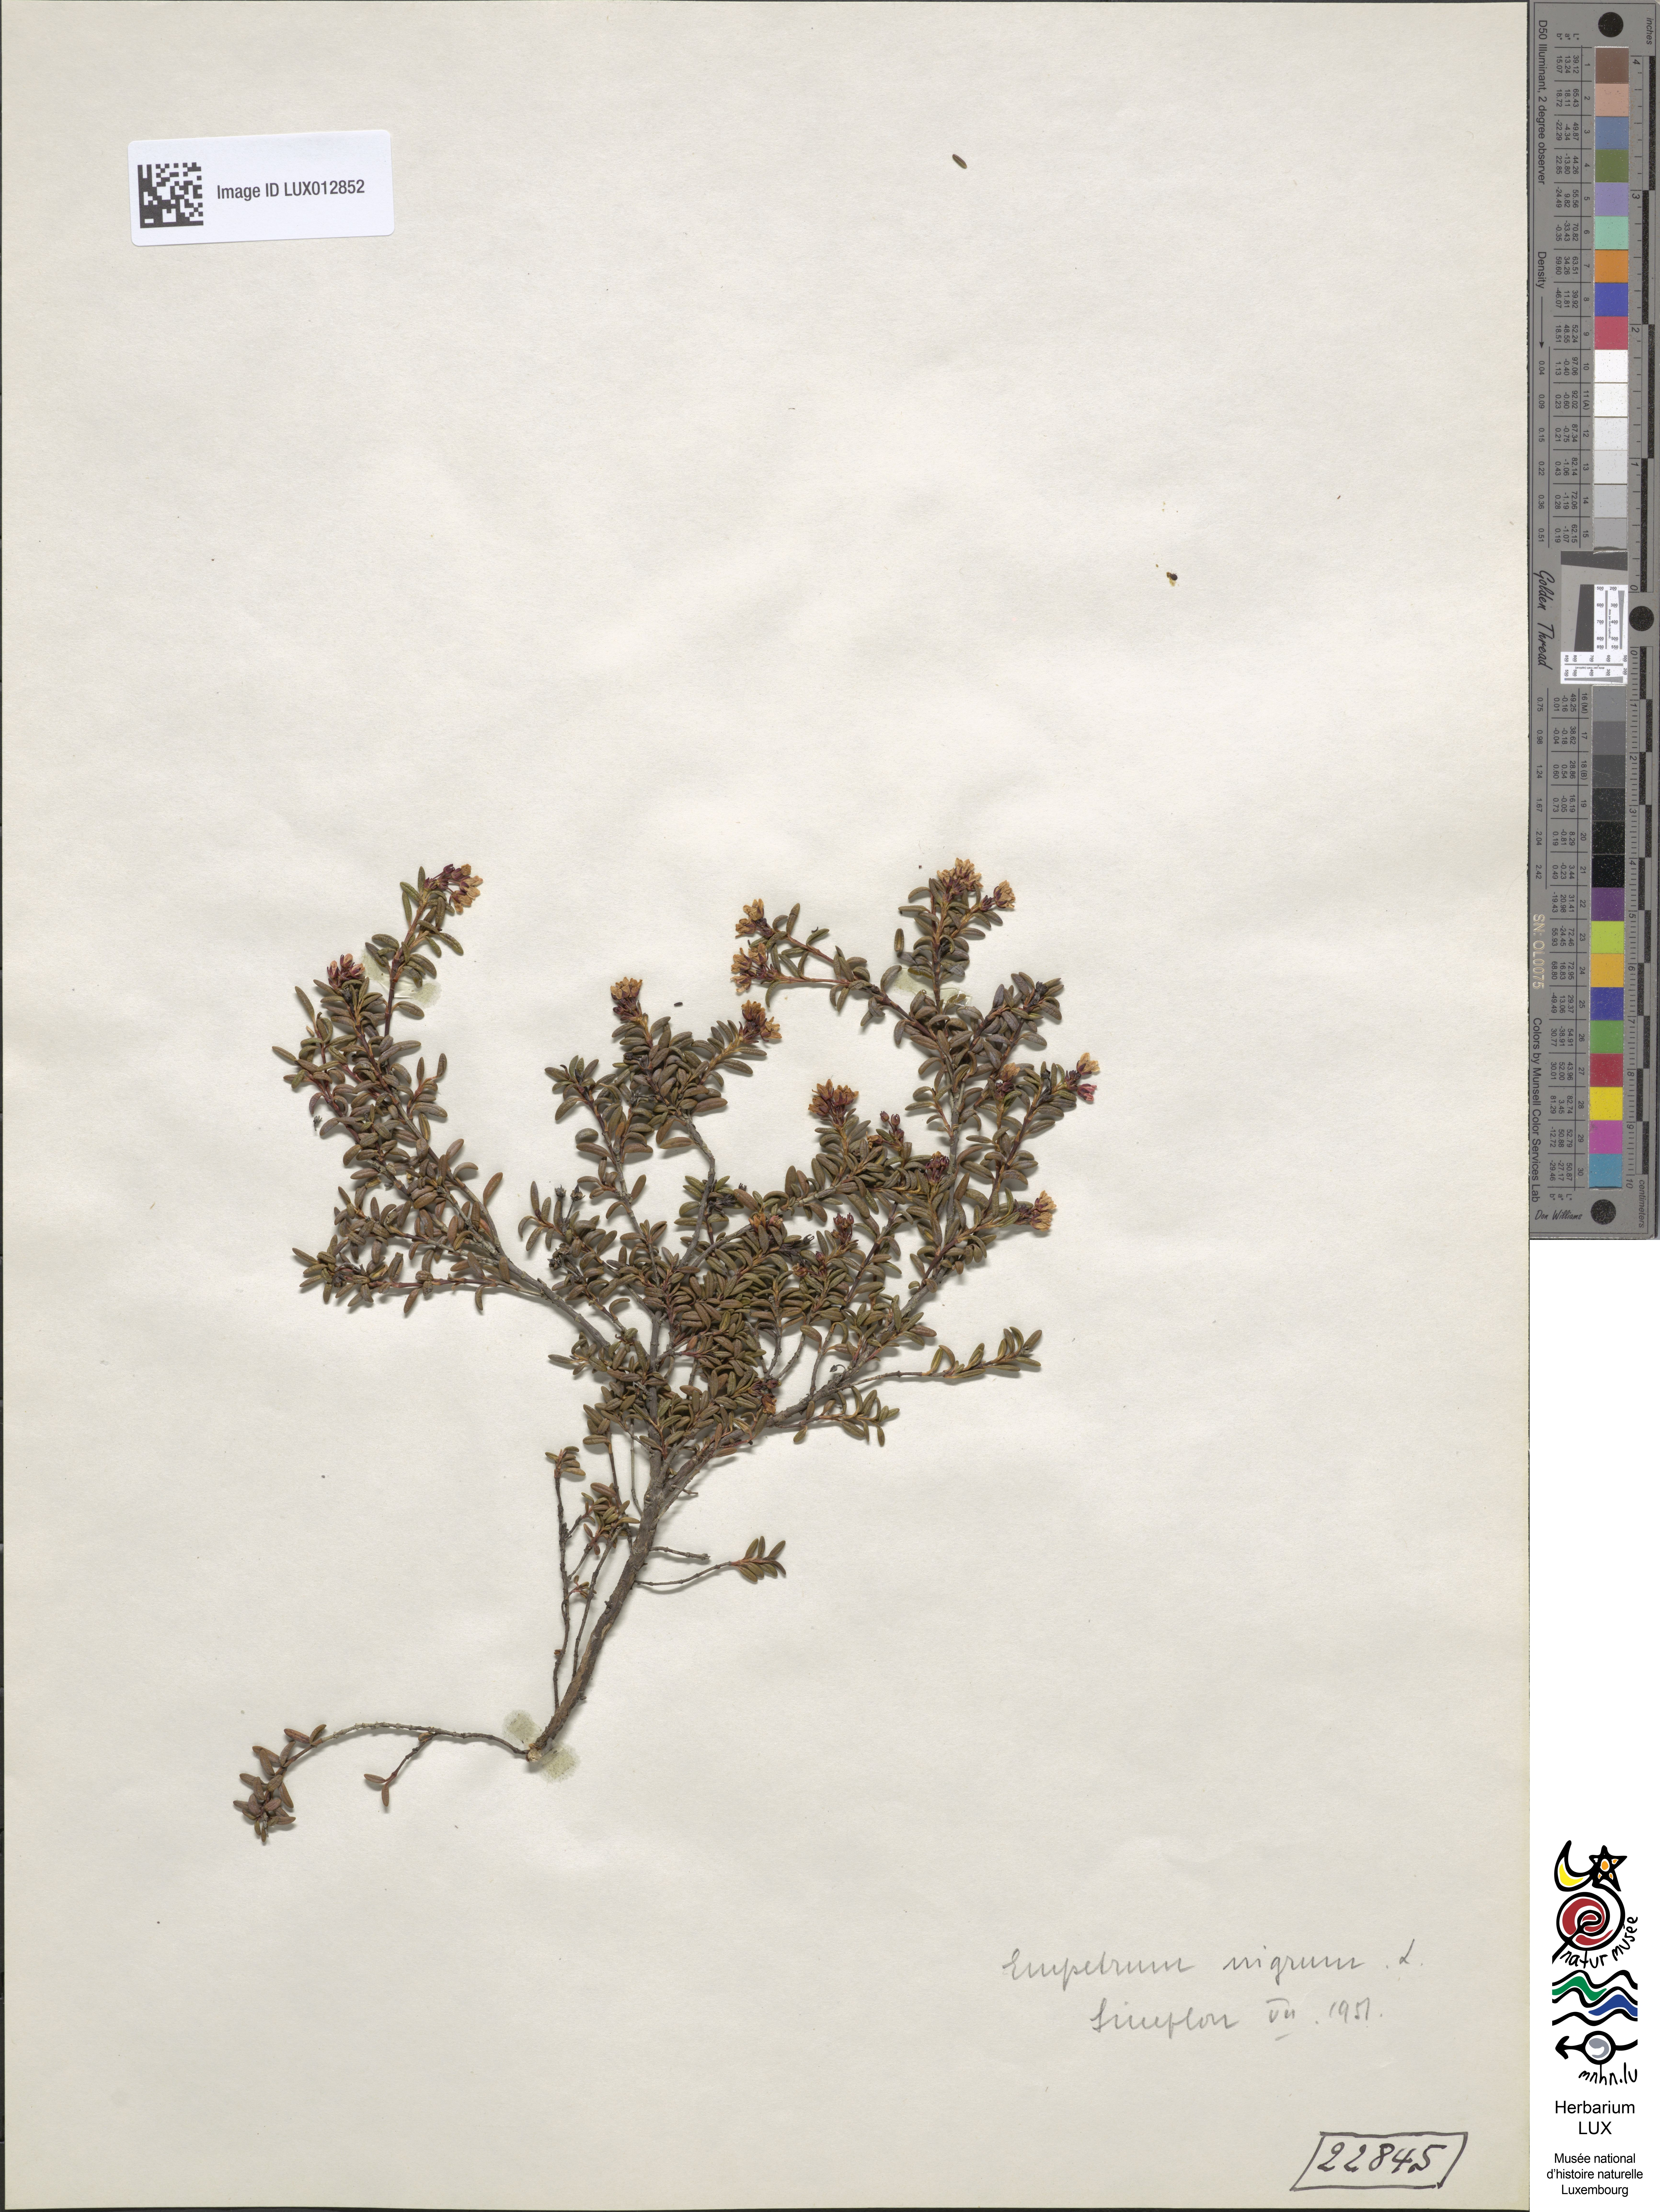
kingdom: Plantae
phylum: Tracheophyta
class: Magnoliopsida
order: Ericales
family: Ericaceae
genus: Empetrum
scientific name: Empetrum nigrum
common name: Black crowberry
